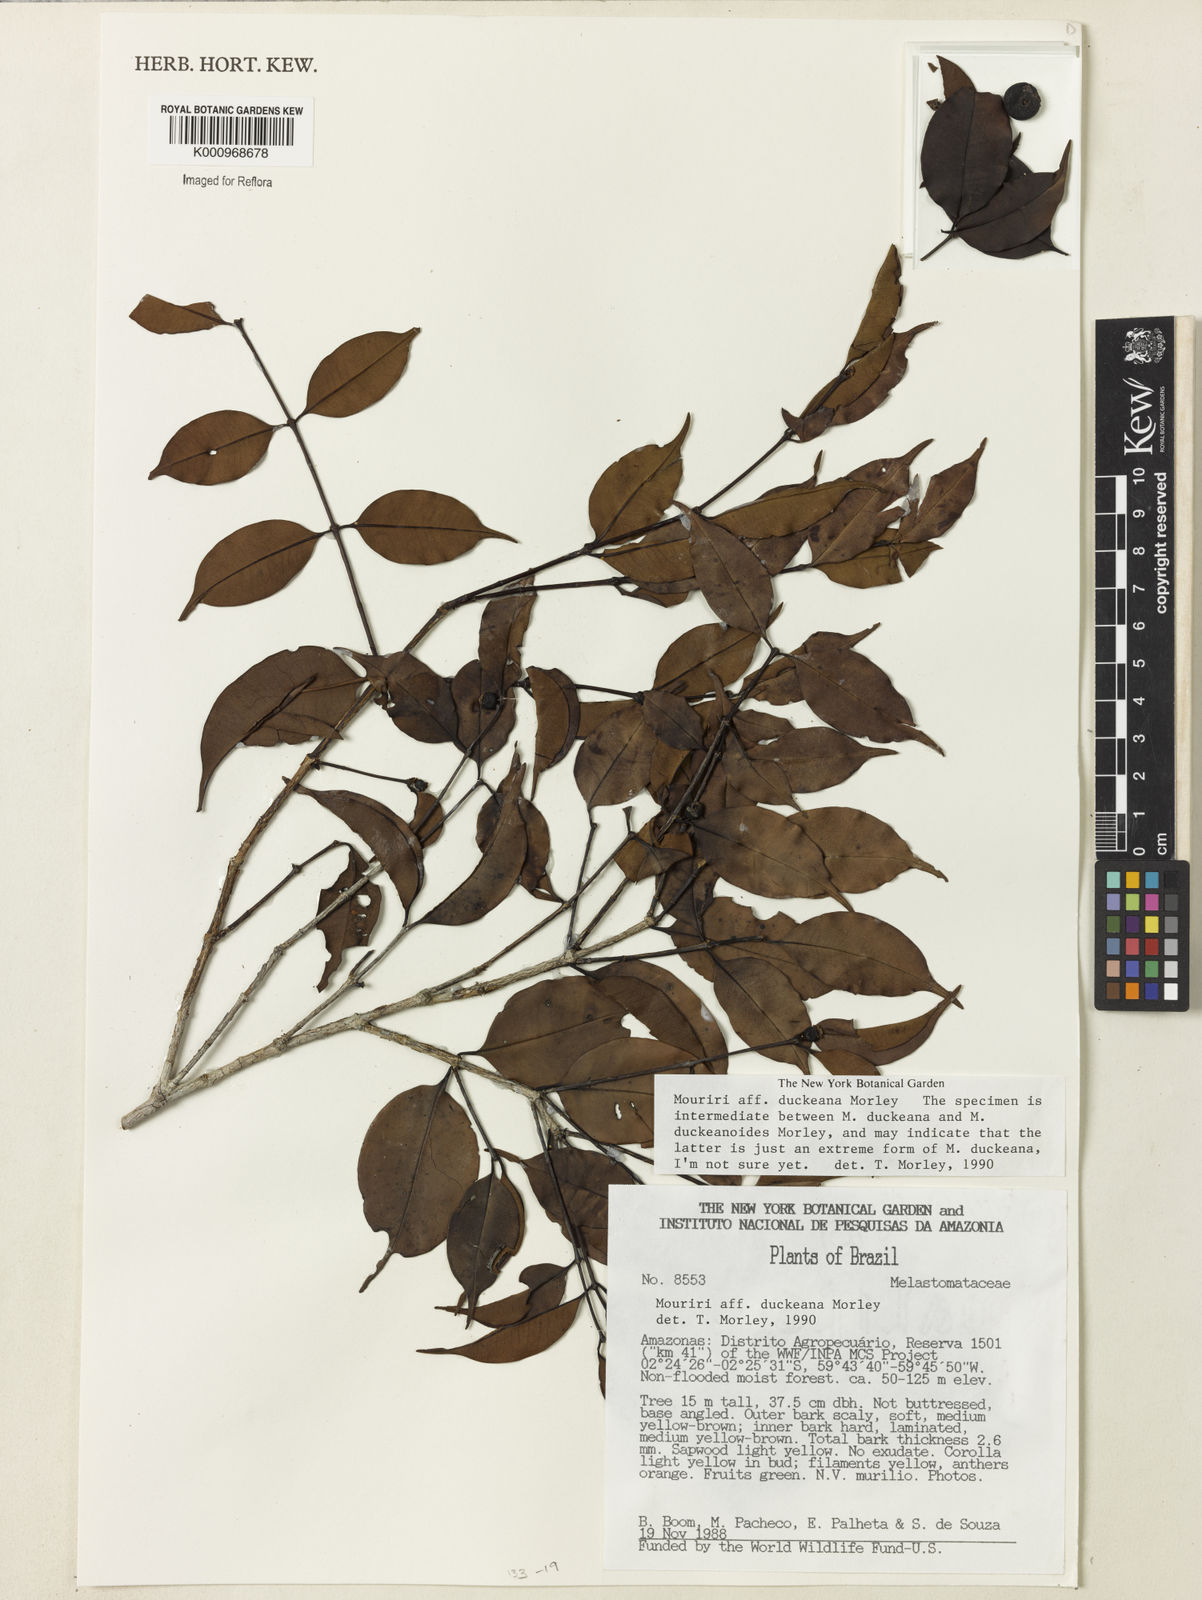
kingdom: Plantae
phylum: Tracheophyta
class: Magnoliopsida
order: Myrtales
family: Melastomataceae
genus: Mouriri
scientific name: Mouriri duckeana
